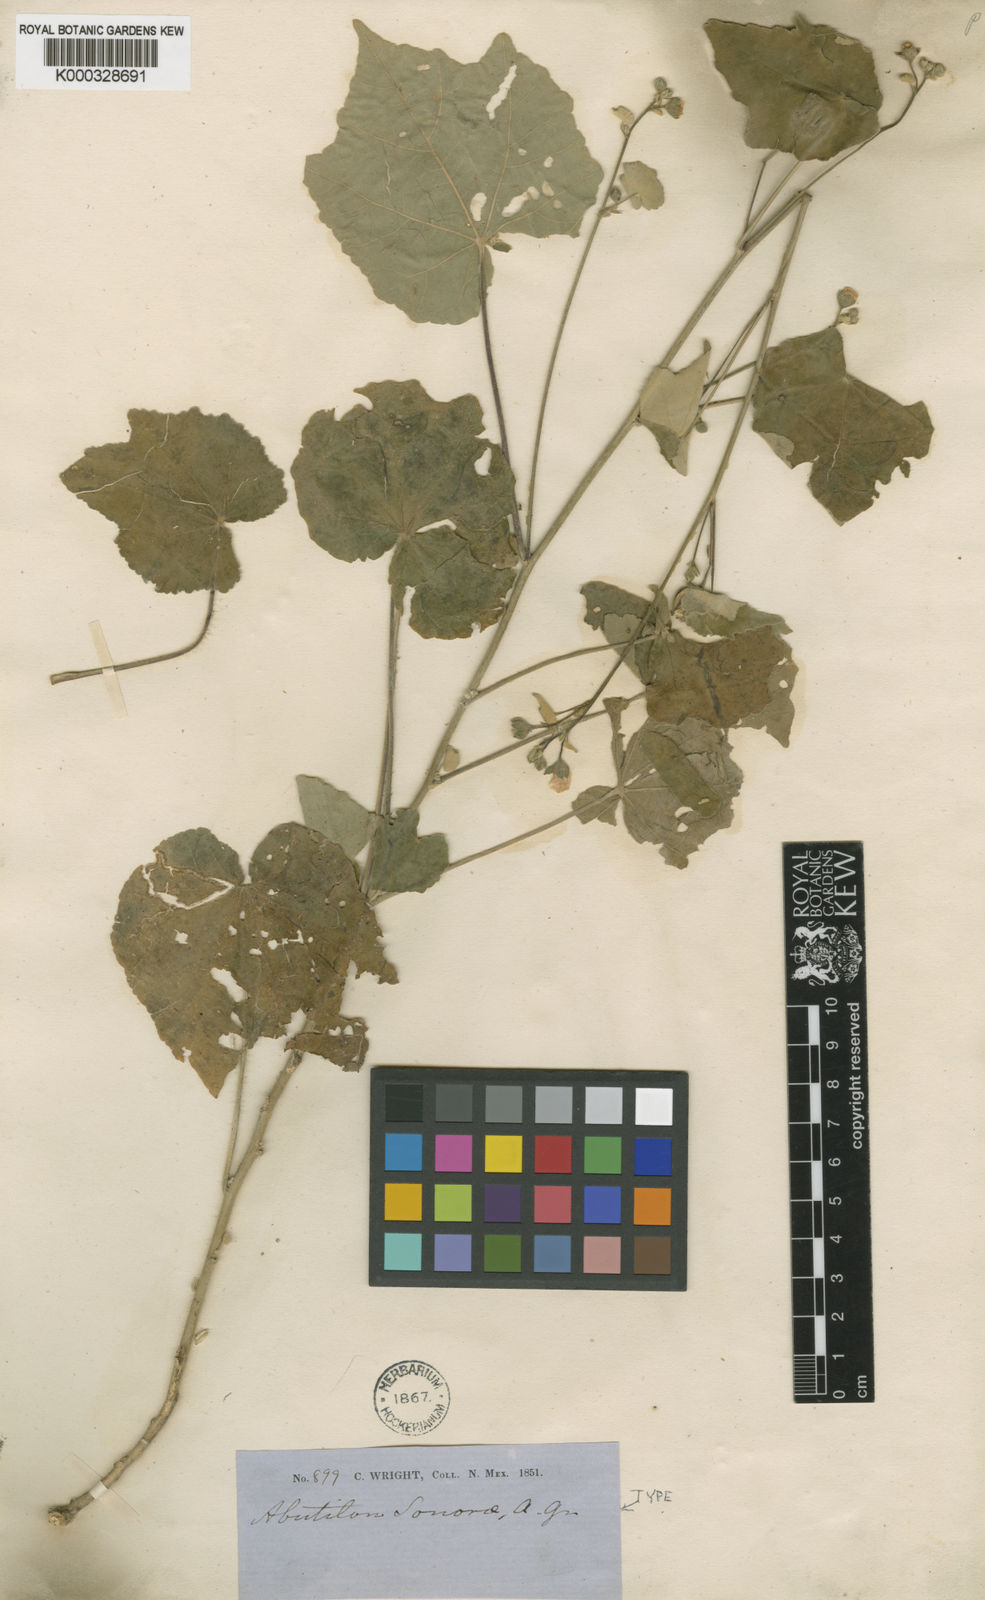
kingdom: Plantae
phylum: Tracheophyta
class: Magnoliopsida
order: Malvales
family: Malvaceae
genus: Abutilon
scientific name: Abutilon mollicomum
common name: Sonoran indian-mallow
